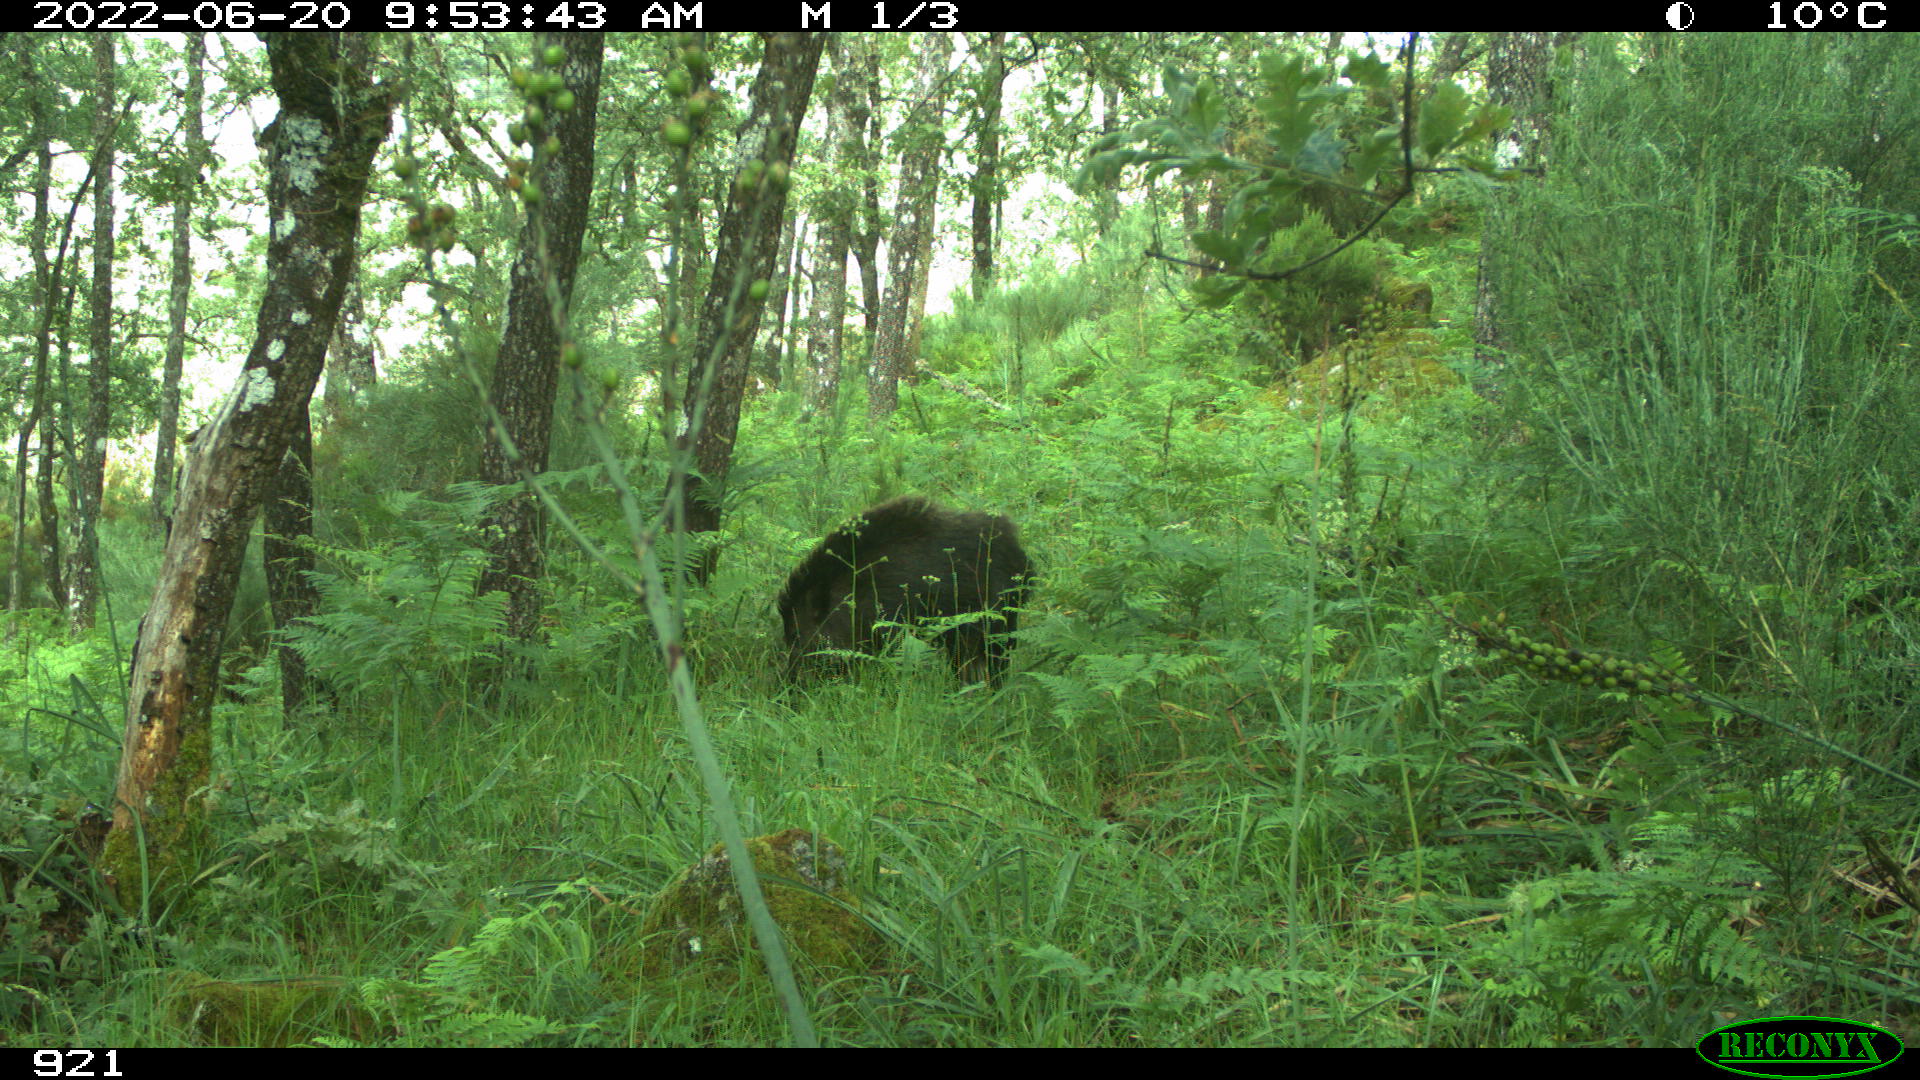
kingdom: Animalia
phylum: Chordata
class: Mammalia
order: Artiodactyla
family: Suidae
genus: Sus
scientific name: Sus scrofa
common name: Wild boar
